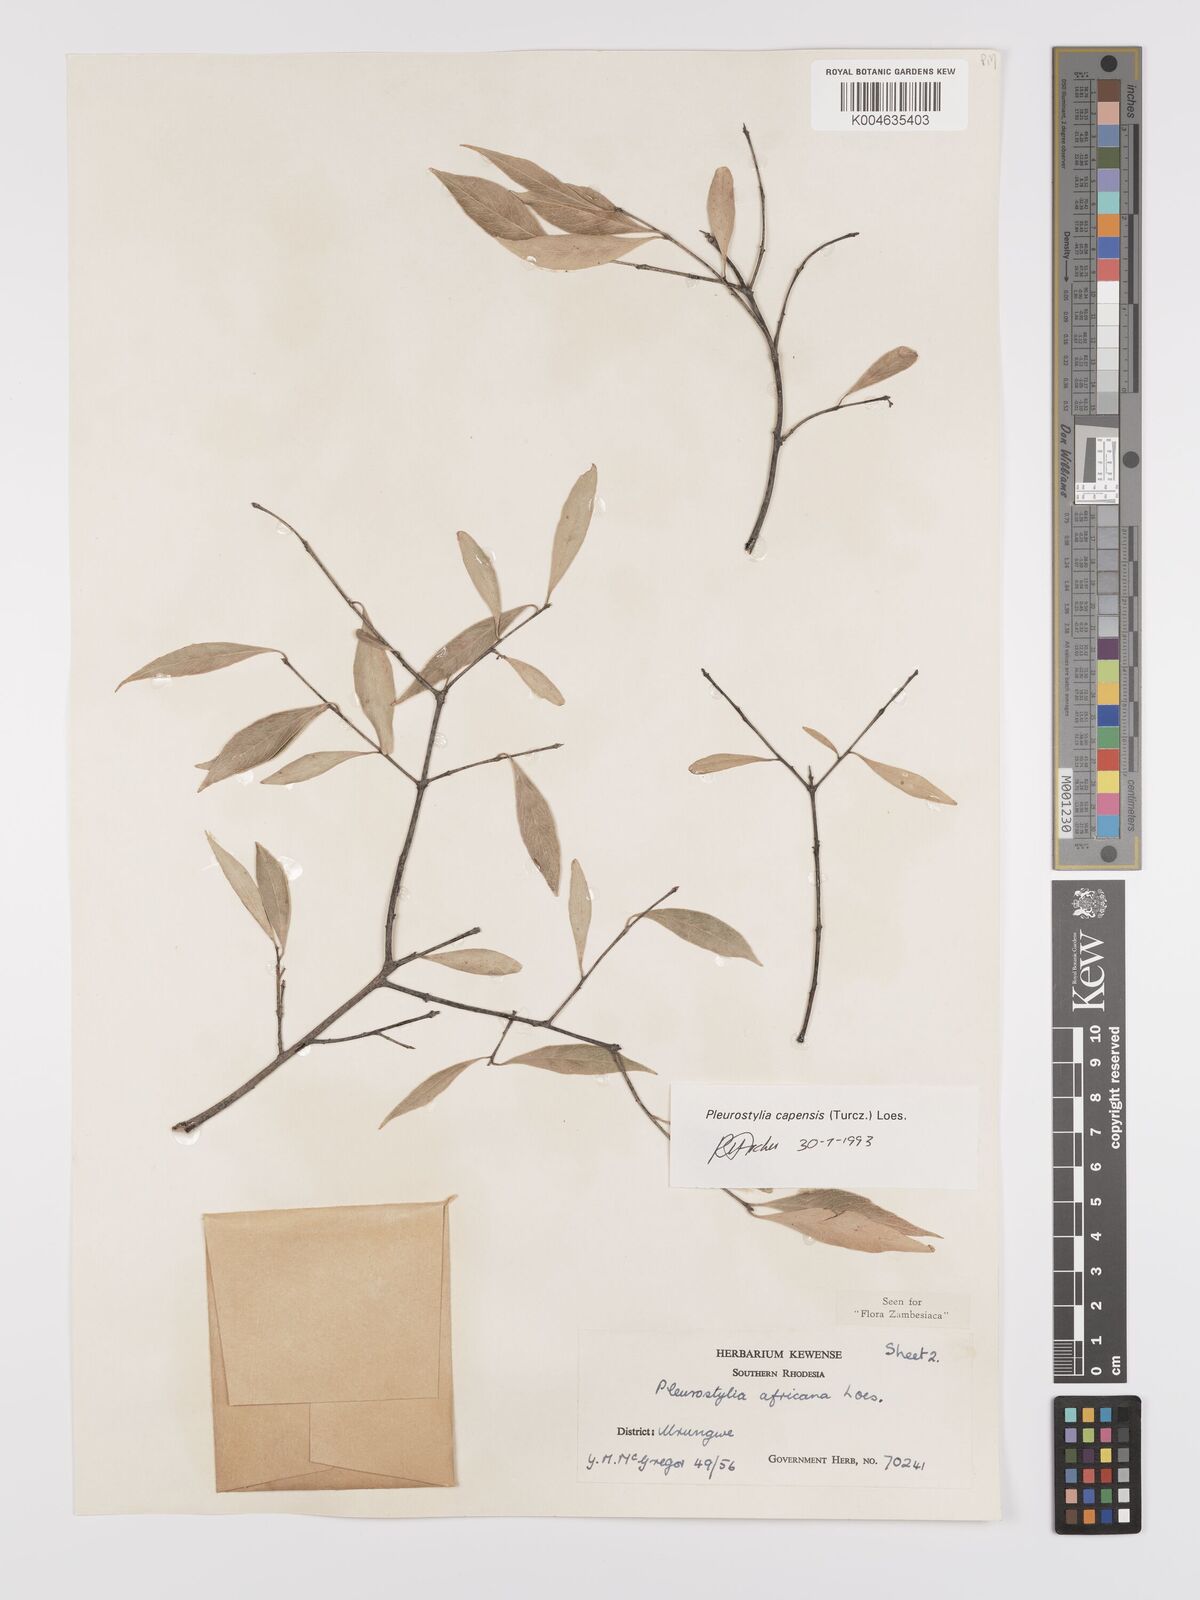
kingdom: Plantae
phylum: Tracheophyta
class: Magnoliopsida
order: Celastrales
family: Celastraceae
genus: Pleurostylia
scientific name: Pleurostylia africana
